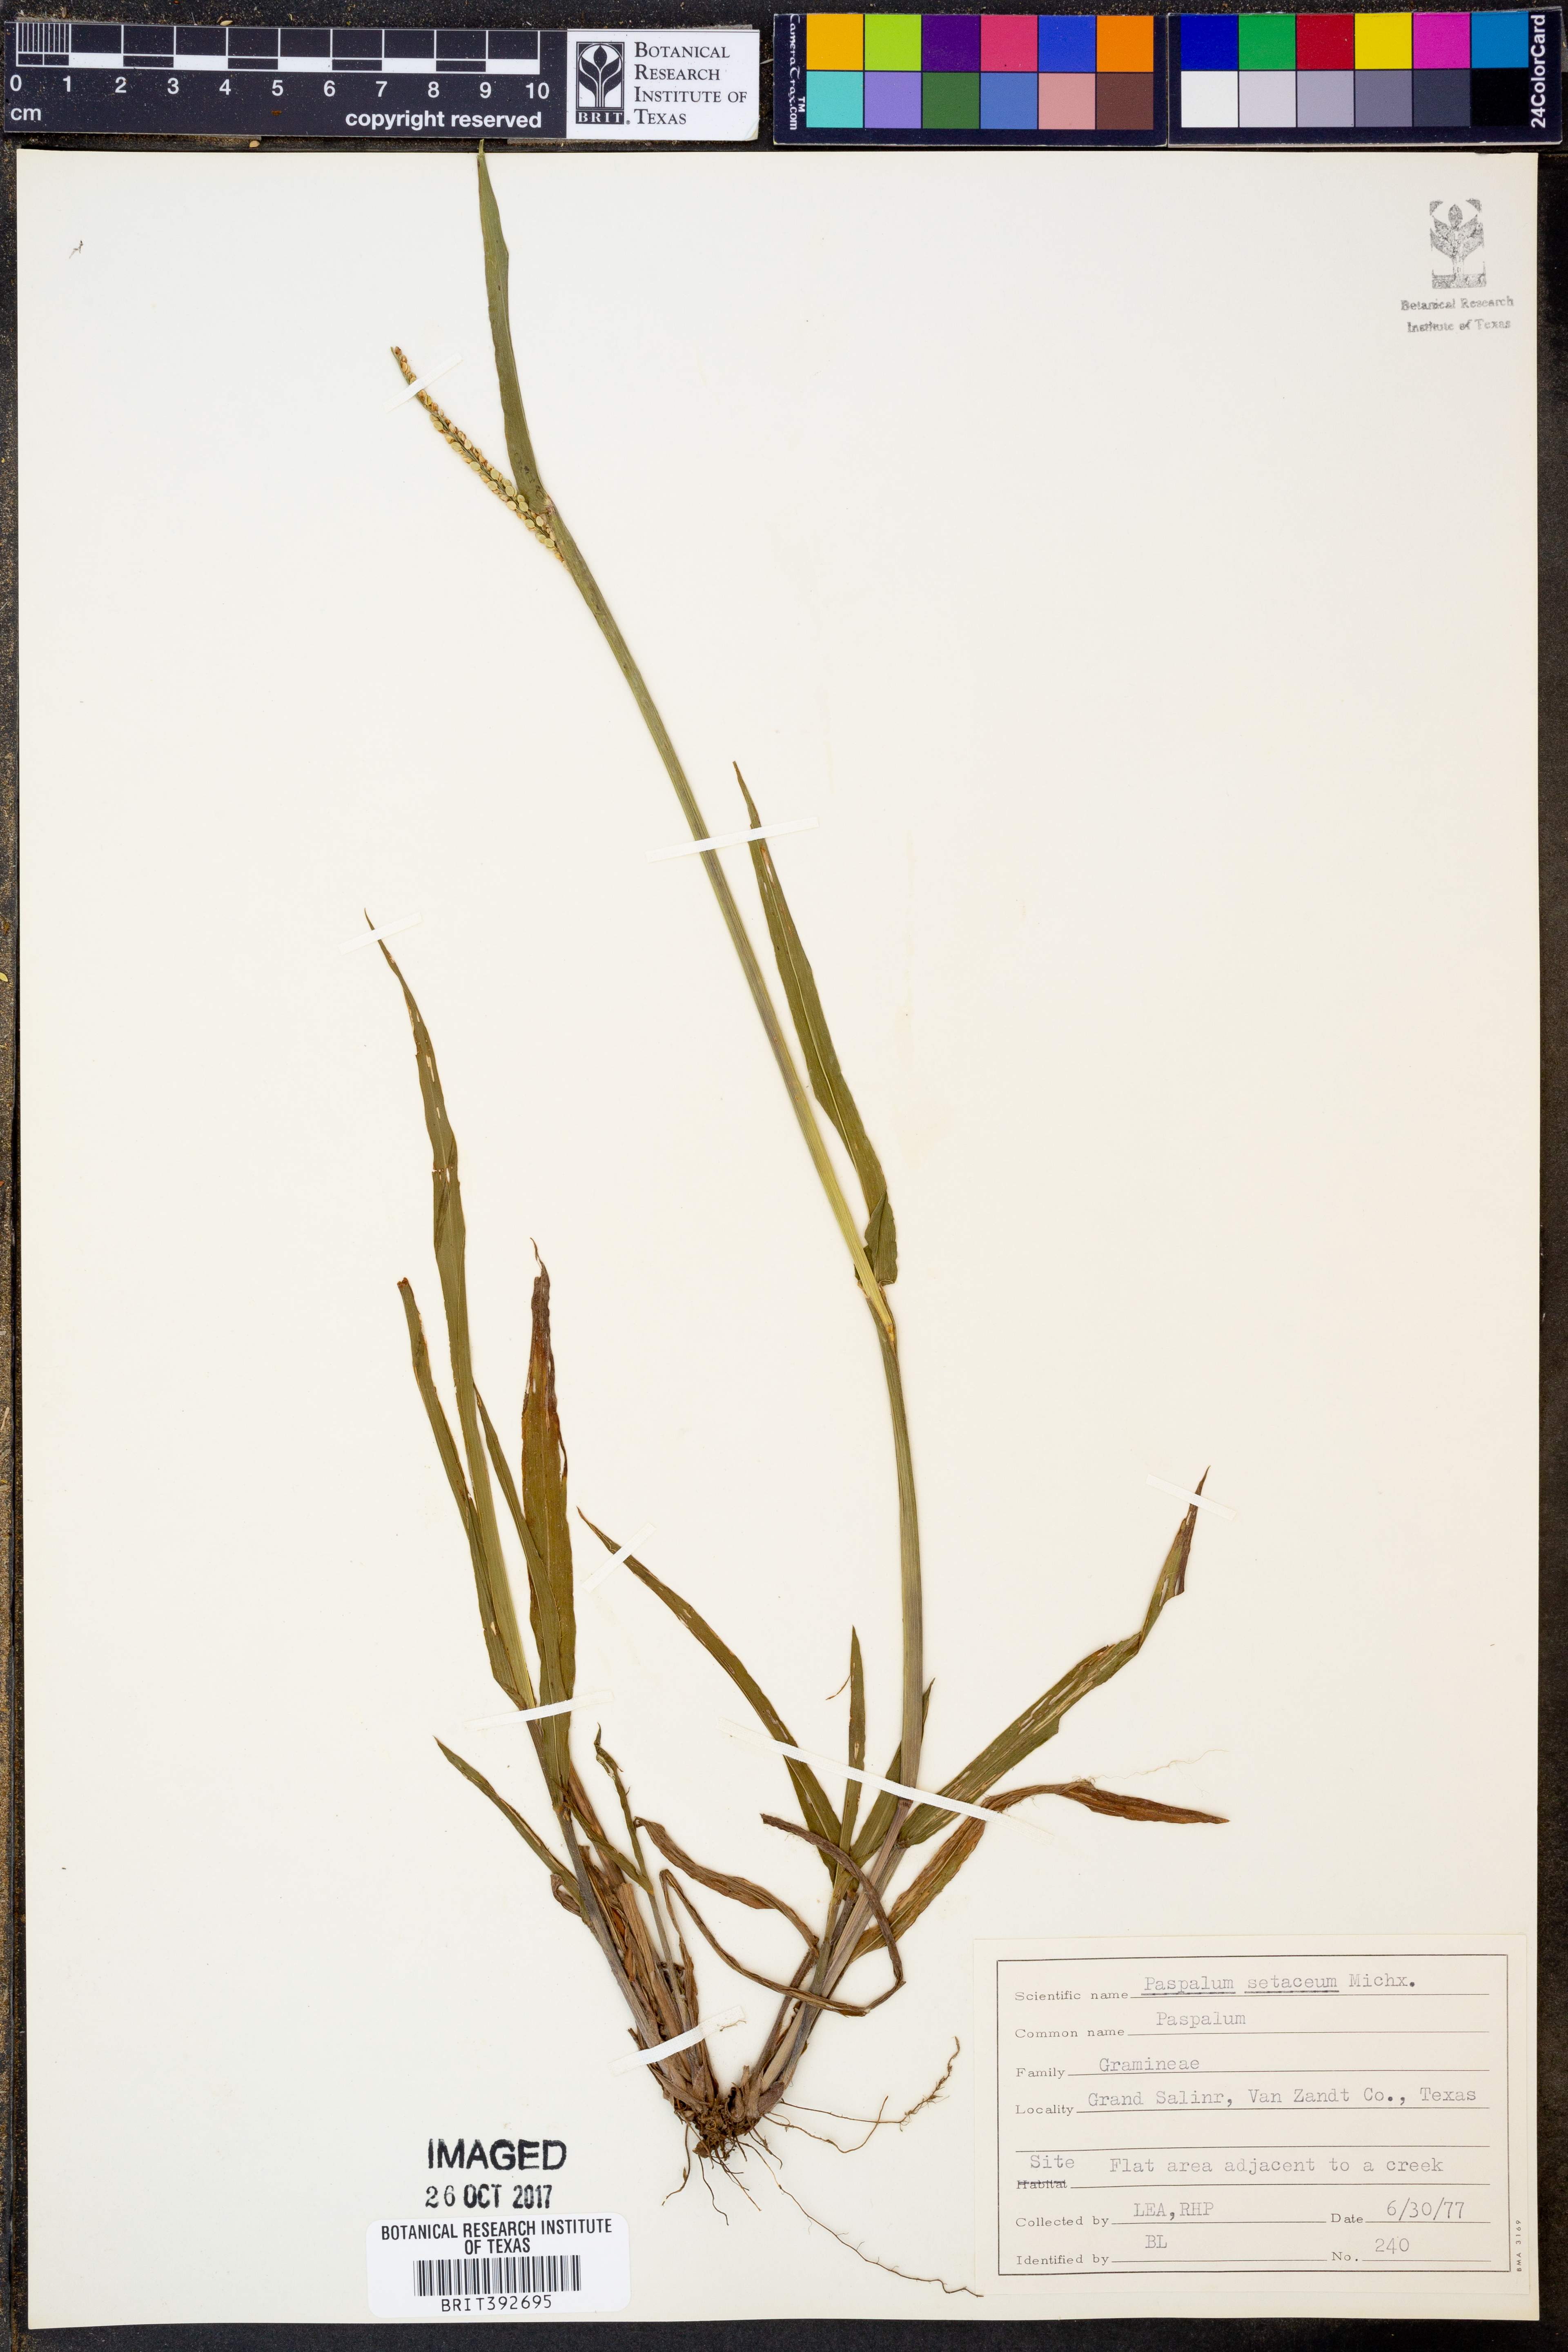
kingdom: Plantae
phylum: Tracheophyta
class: Liliopsida
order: Poales
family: Poaceae
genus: Paspalum
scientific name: Paspalum setaceum
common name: Slender paspalum
